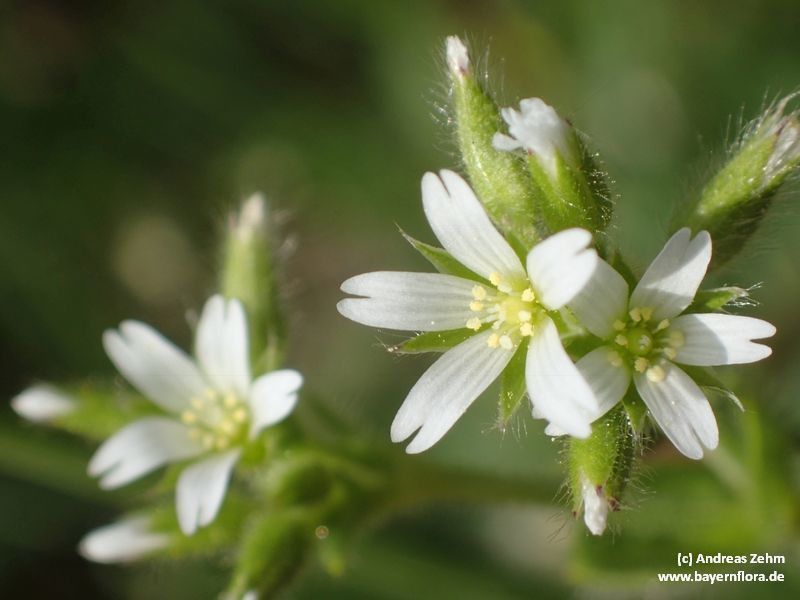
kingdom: Plantae
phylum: Tracheophyta
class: Magnoliopsida
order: Caryophyllales
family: Caryophyllaceae
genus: Cerastium
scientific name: Cerastium glomeratum
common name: Sticky chickweed
